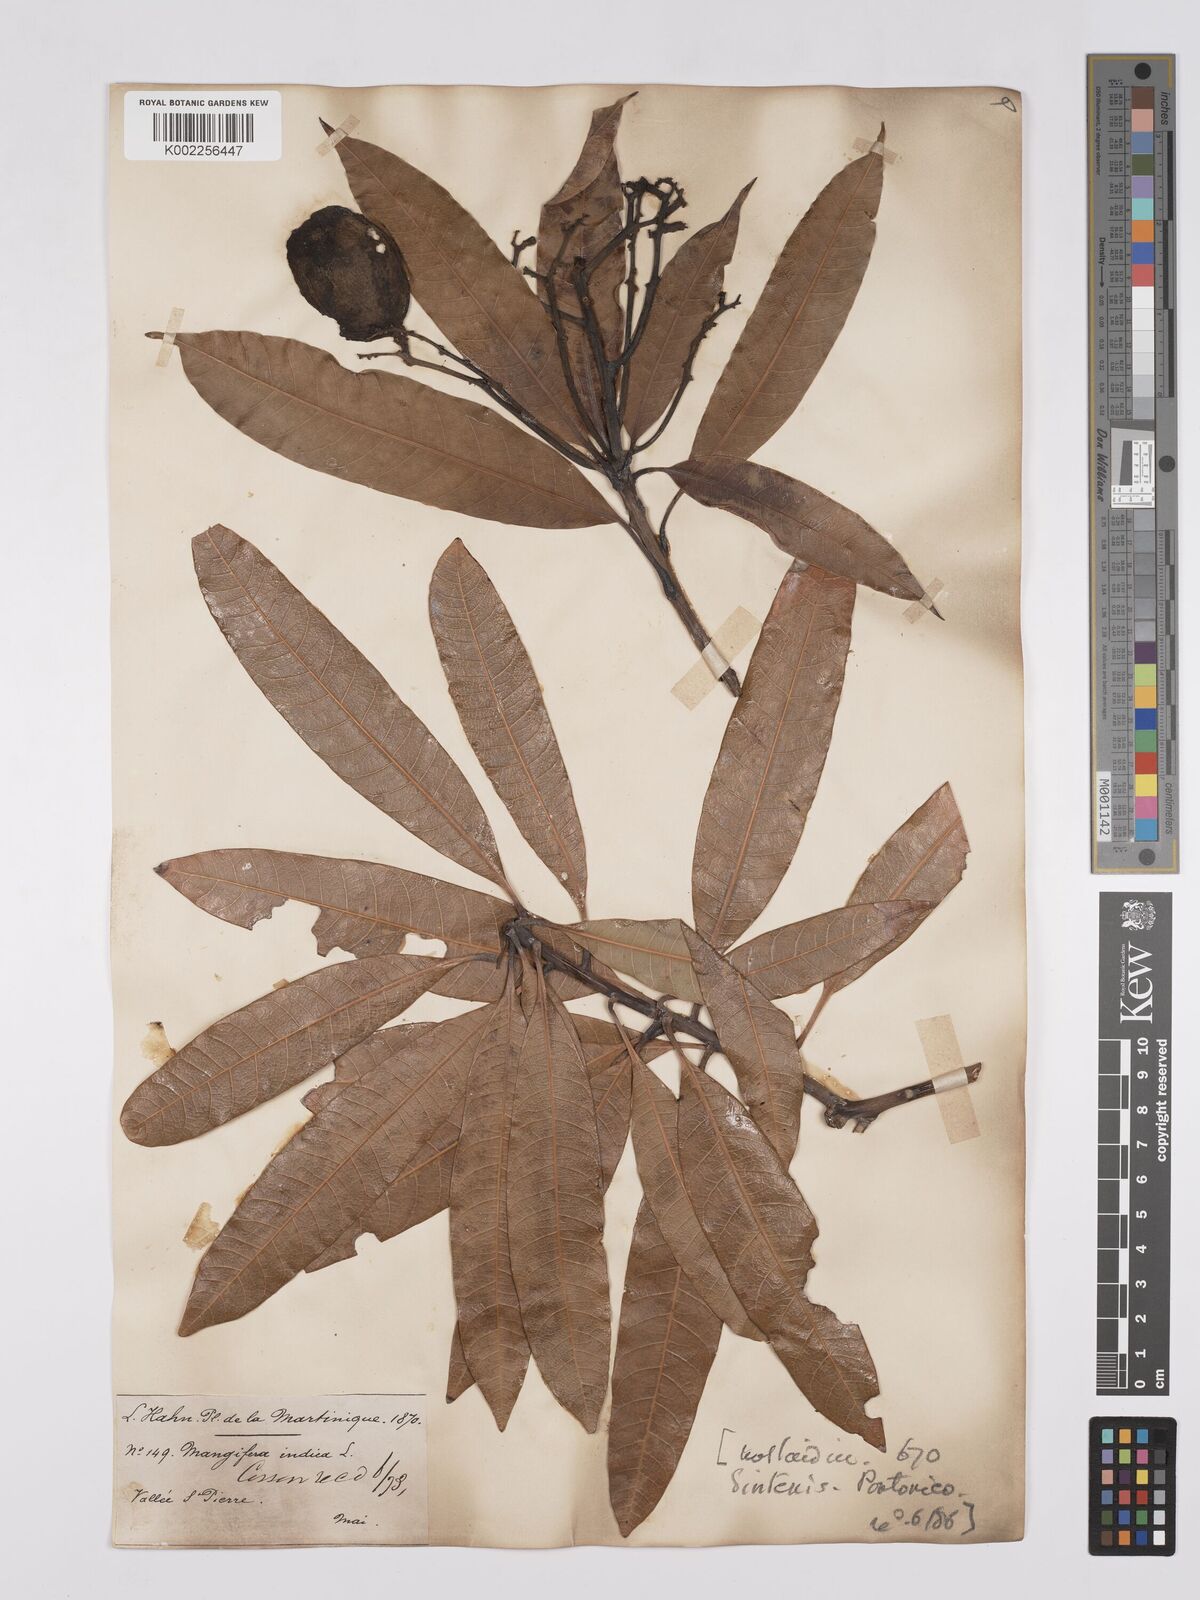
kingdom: Plantae
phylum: Tracheophyta
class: Magnoliopsida
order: Sapindales
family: Anacardiaceae
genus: Mangifera
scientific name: Mangifera indica
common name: Mango
